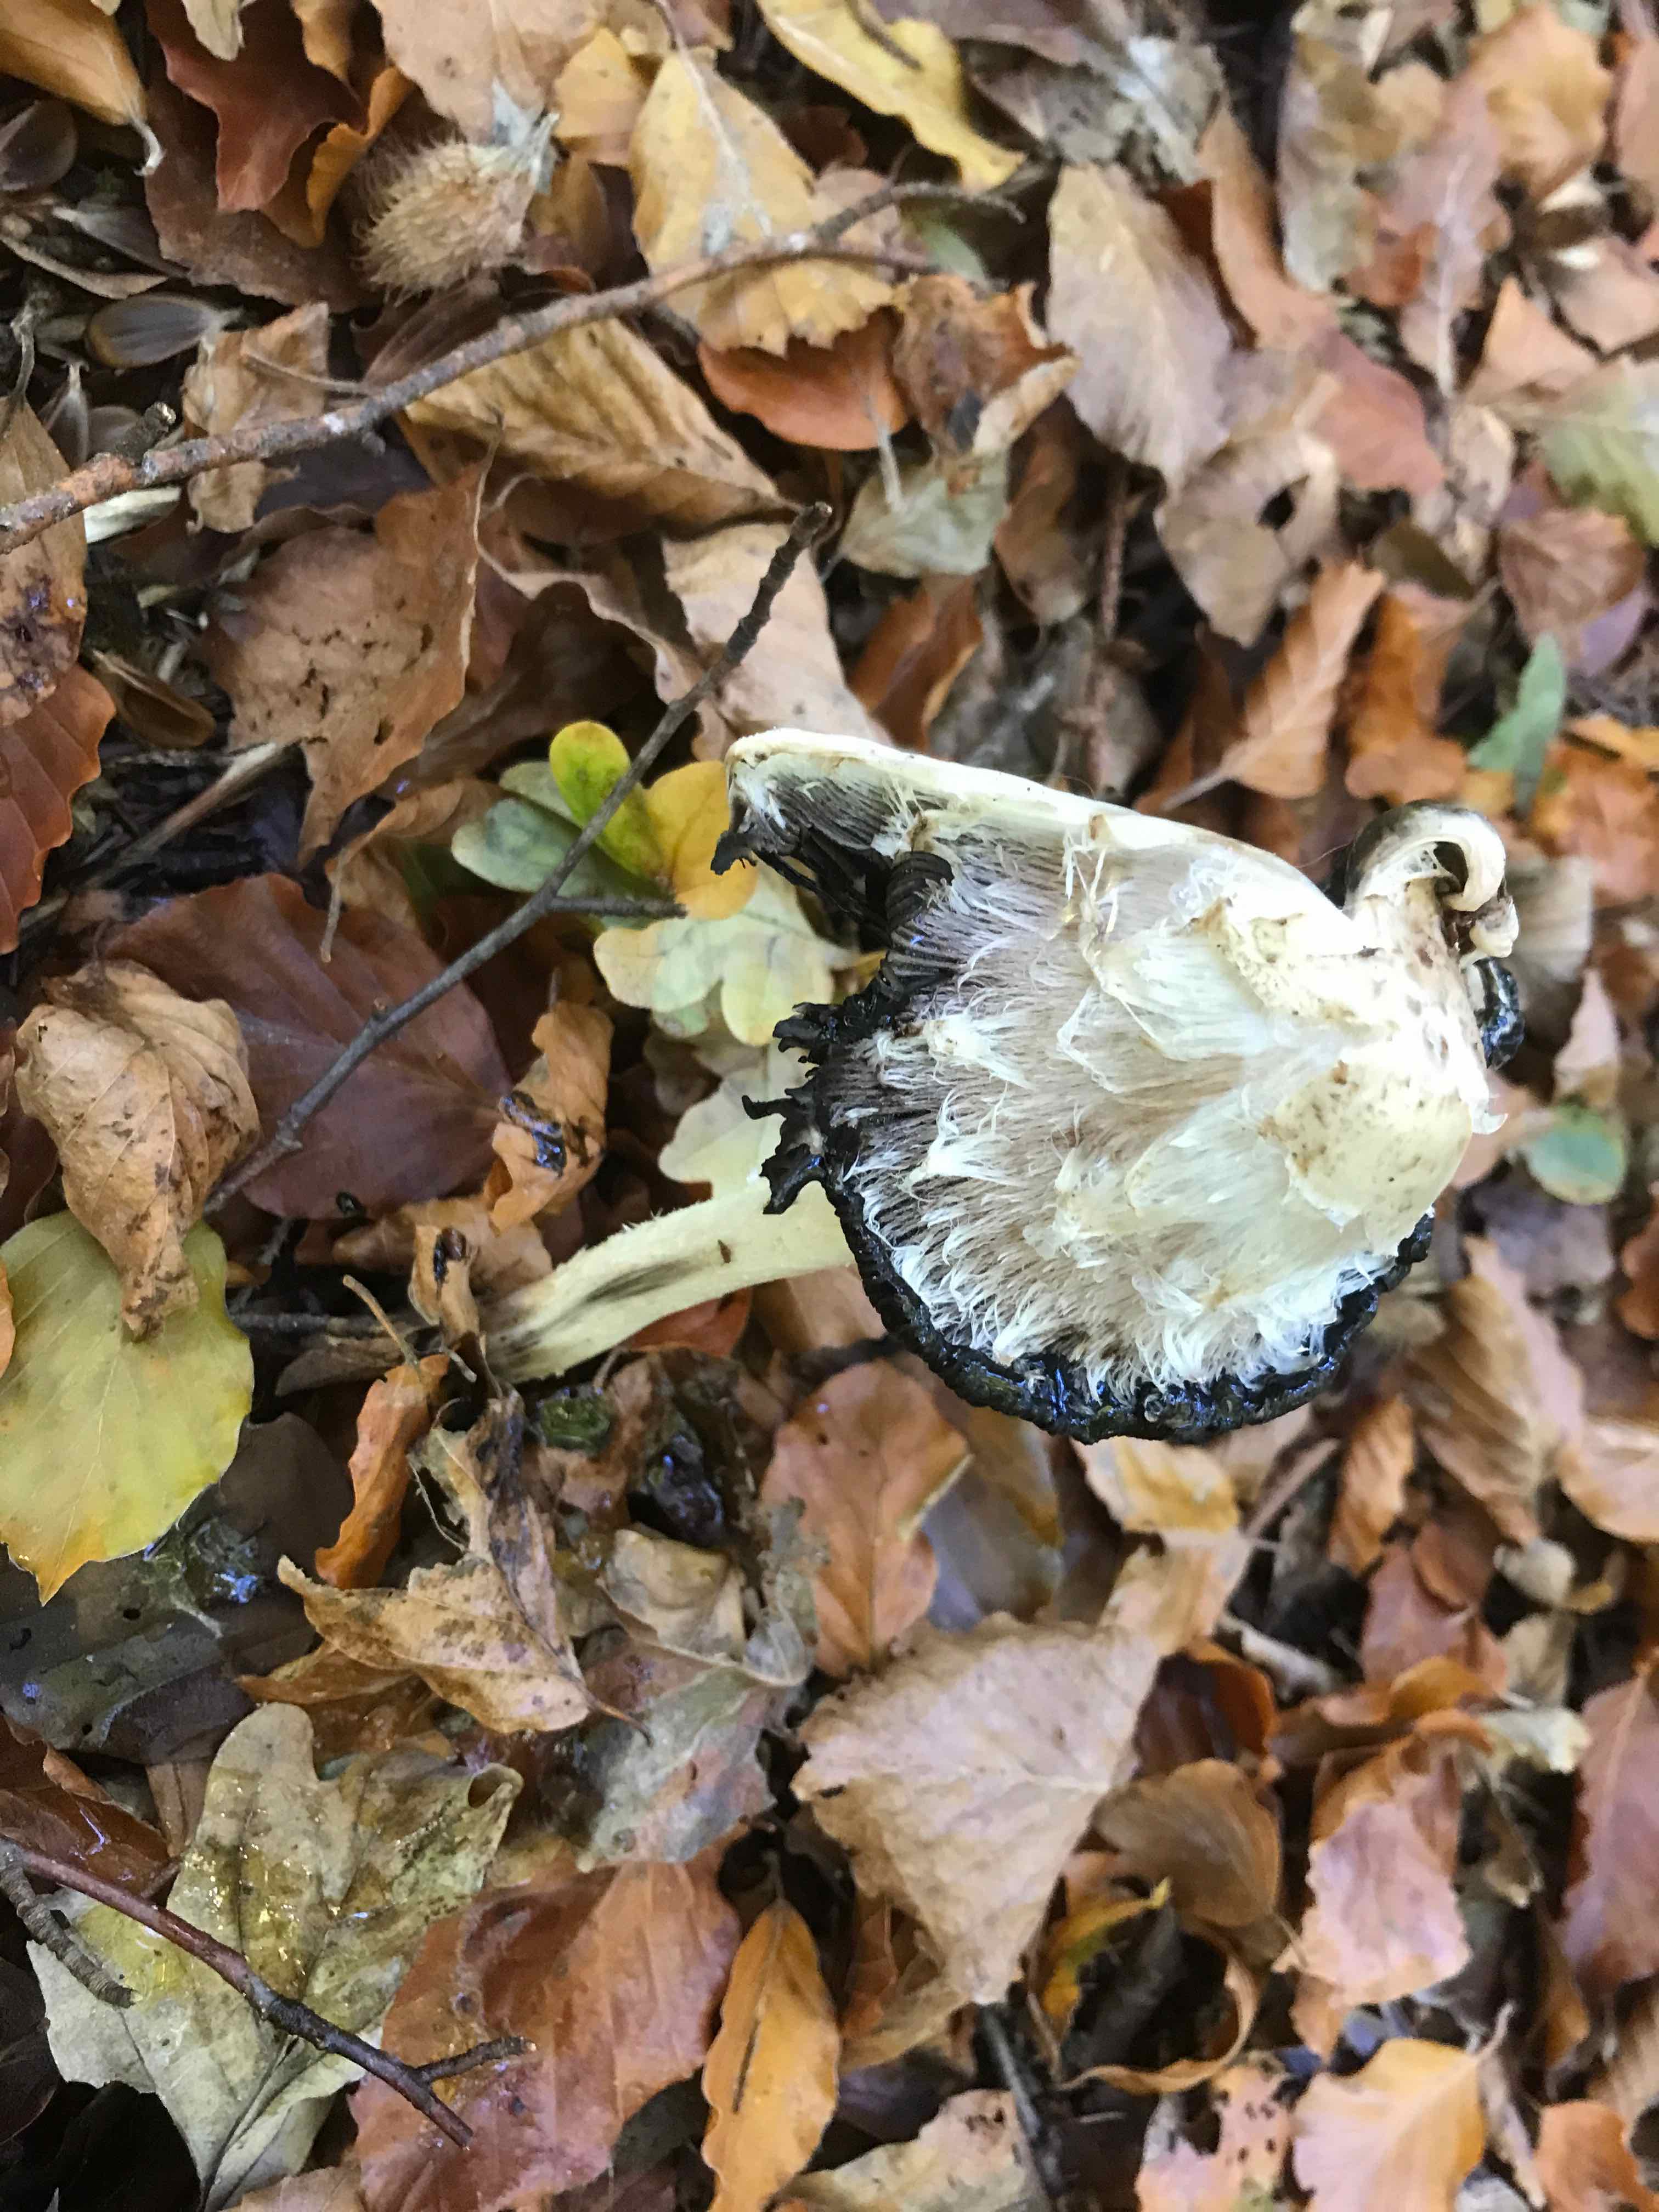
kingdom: Fungi
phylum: Basidiomycota
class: Agaricomycetes
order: Agaricales
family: Agaricaceae
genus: Coprinus
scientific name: Coprinus comatus
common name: stor parykhat
